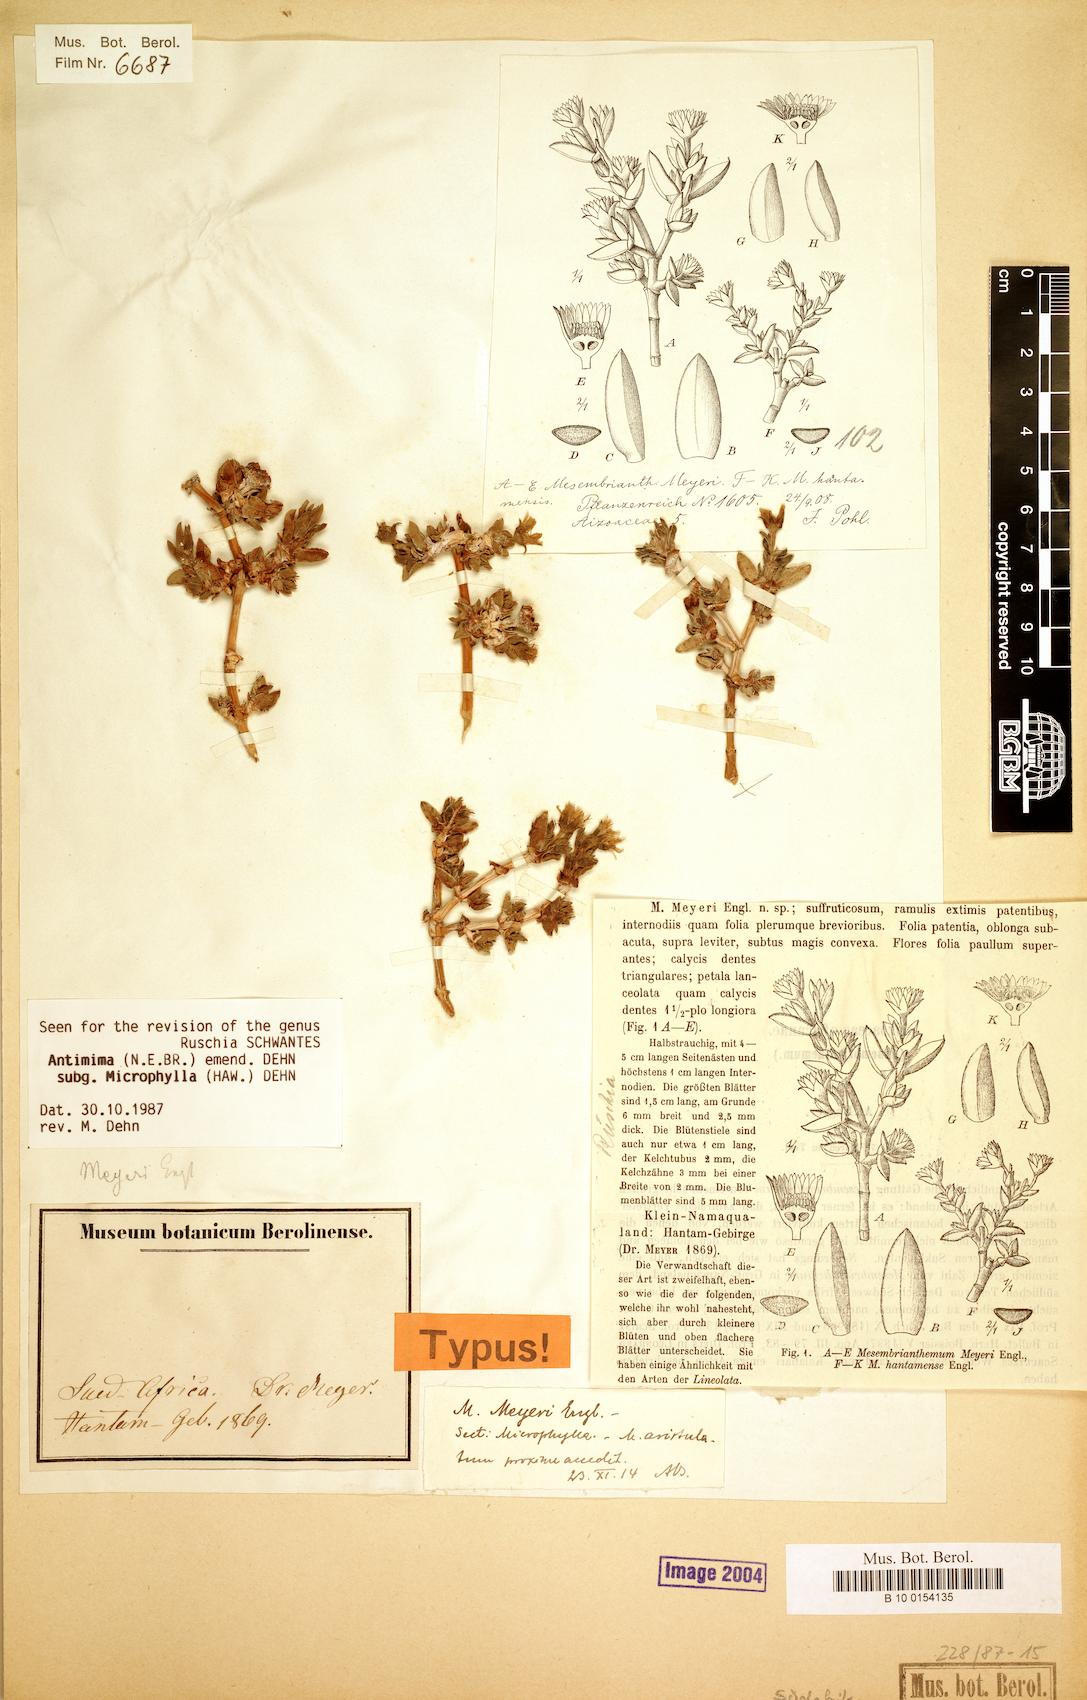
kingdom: Plantae
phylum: Tracheophyta
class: Magnoliopsida
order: Caryophyllales
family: Aizoaceae
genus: Mesembryanthemum
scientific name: Mesembryanthemum meyeri
